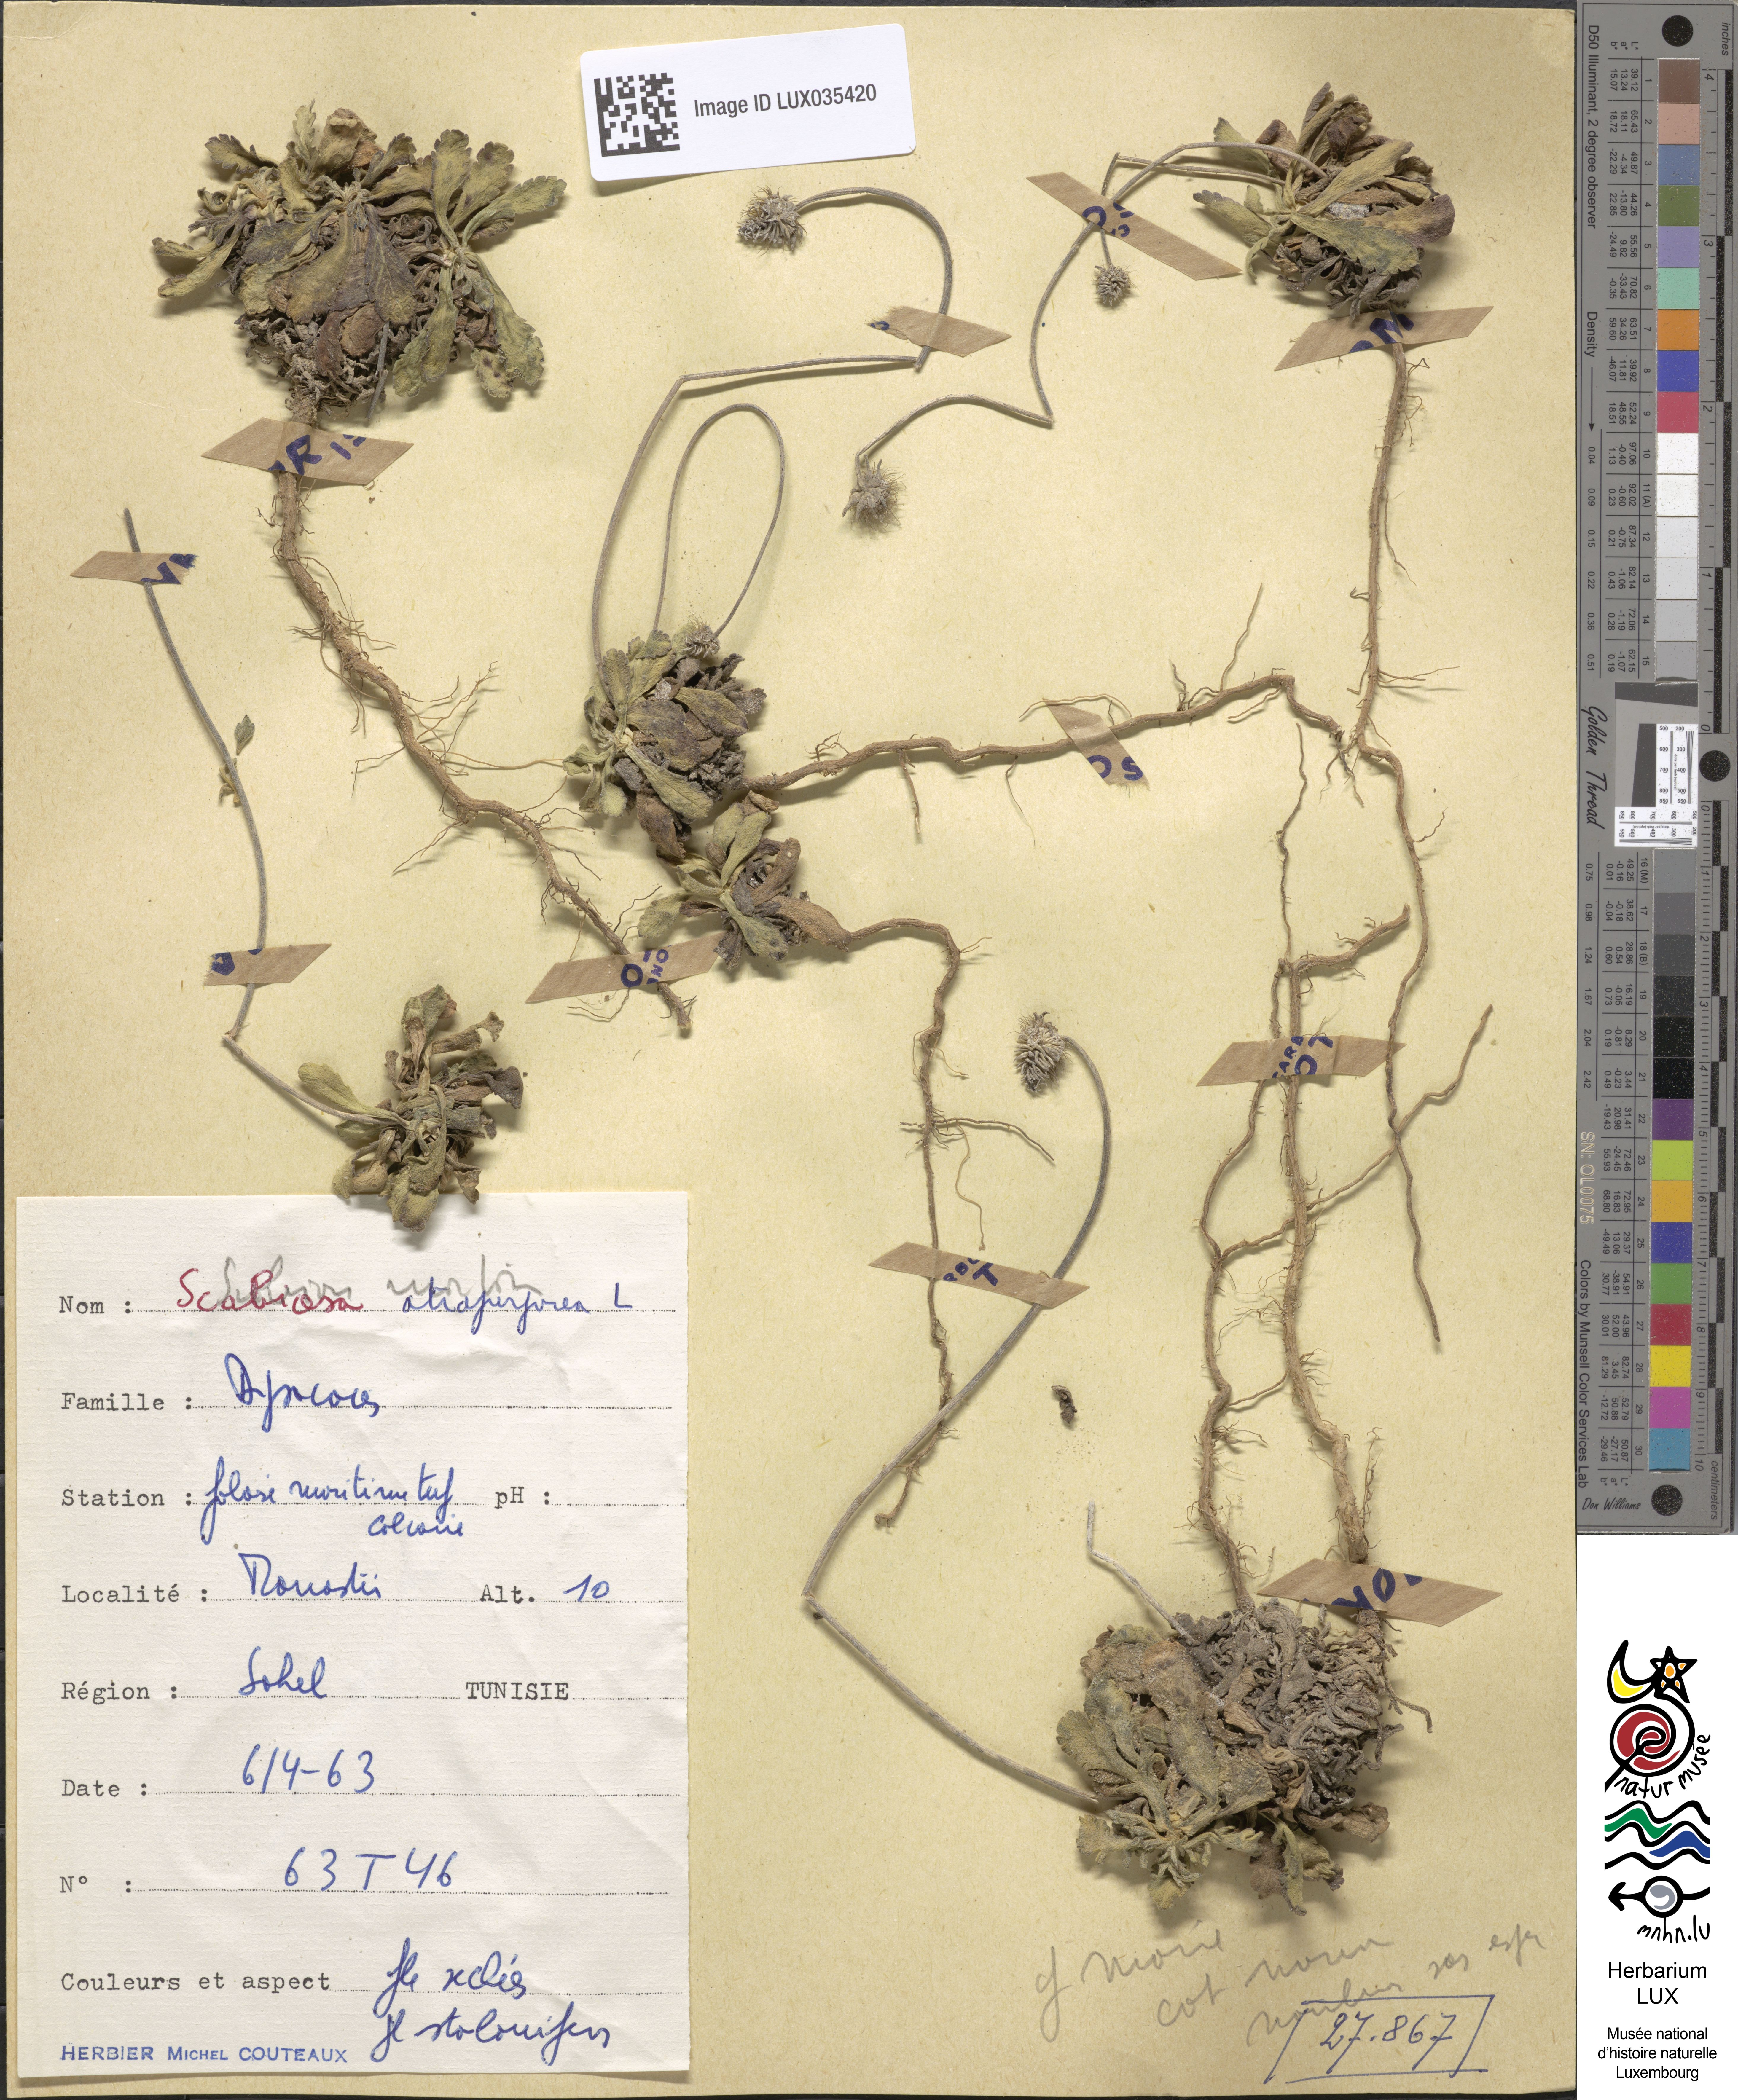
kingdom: Plantae
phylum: Tracheophyta
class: Magnoliopsida
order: Dipsacales
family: Caprifoliaceae
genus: Sixalix
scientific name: Sixalix atropurpurea
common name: Sweet scabious
